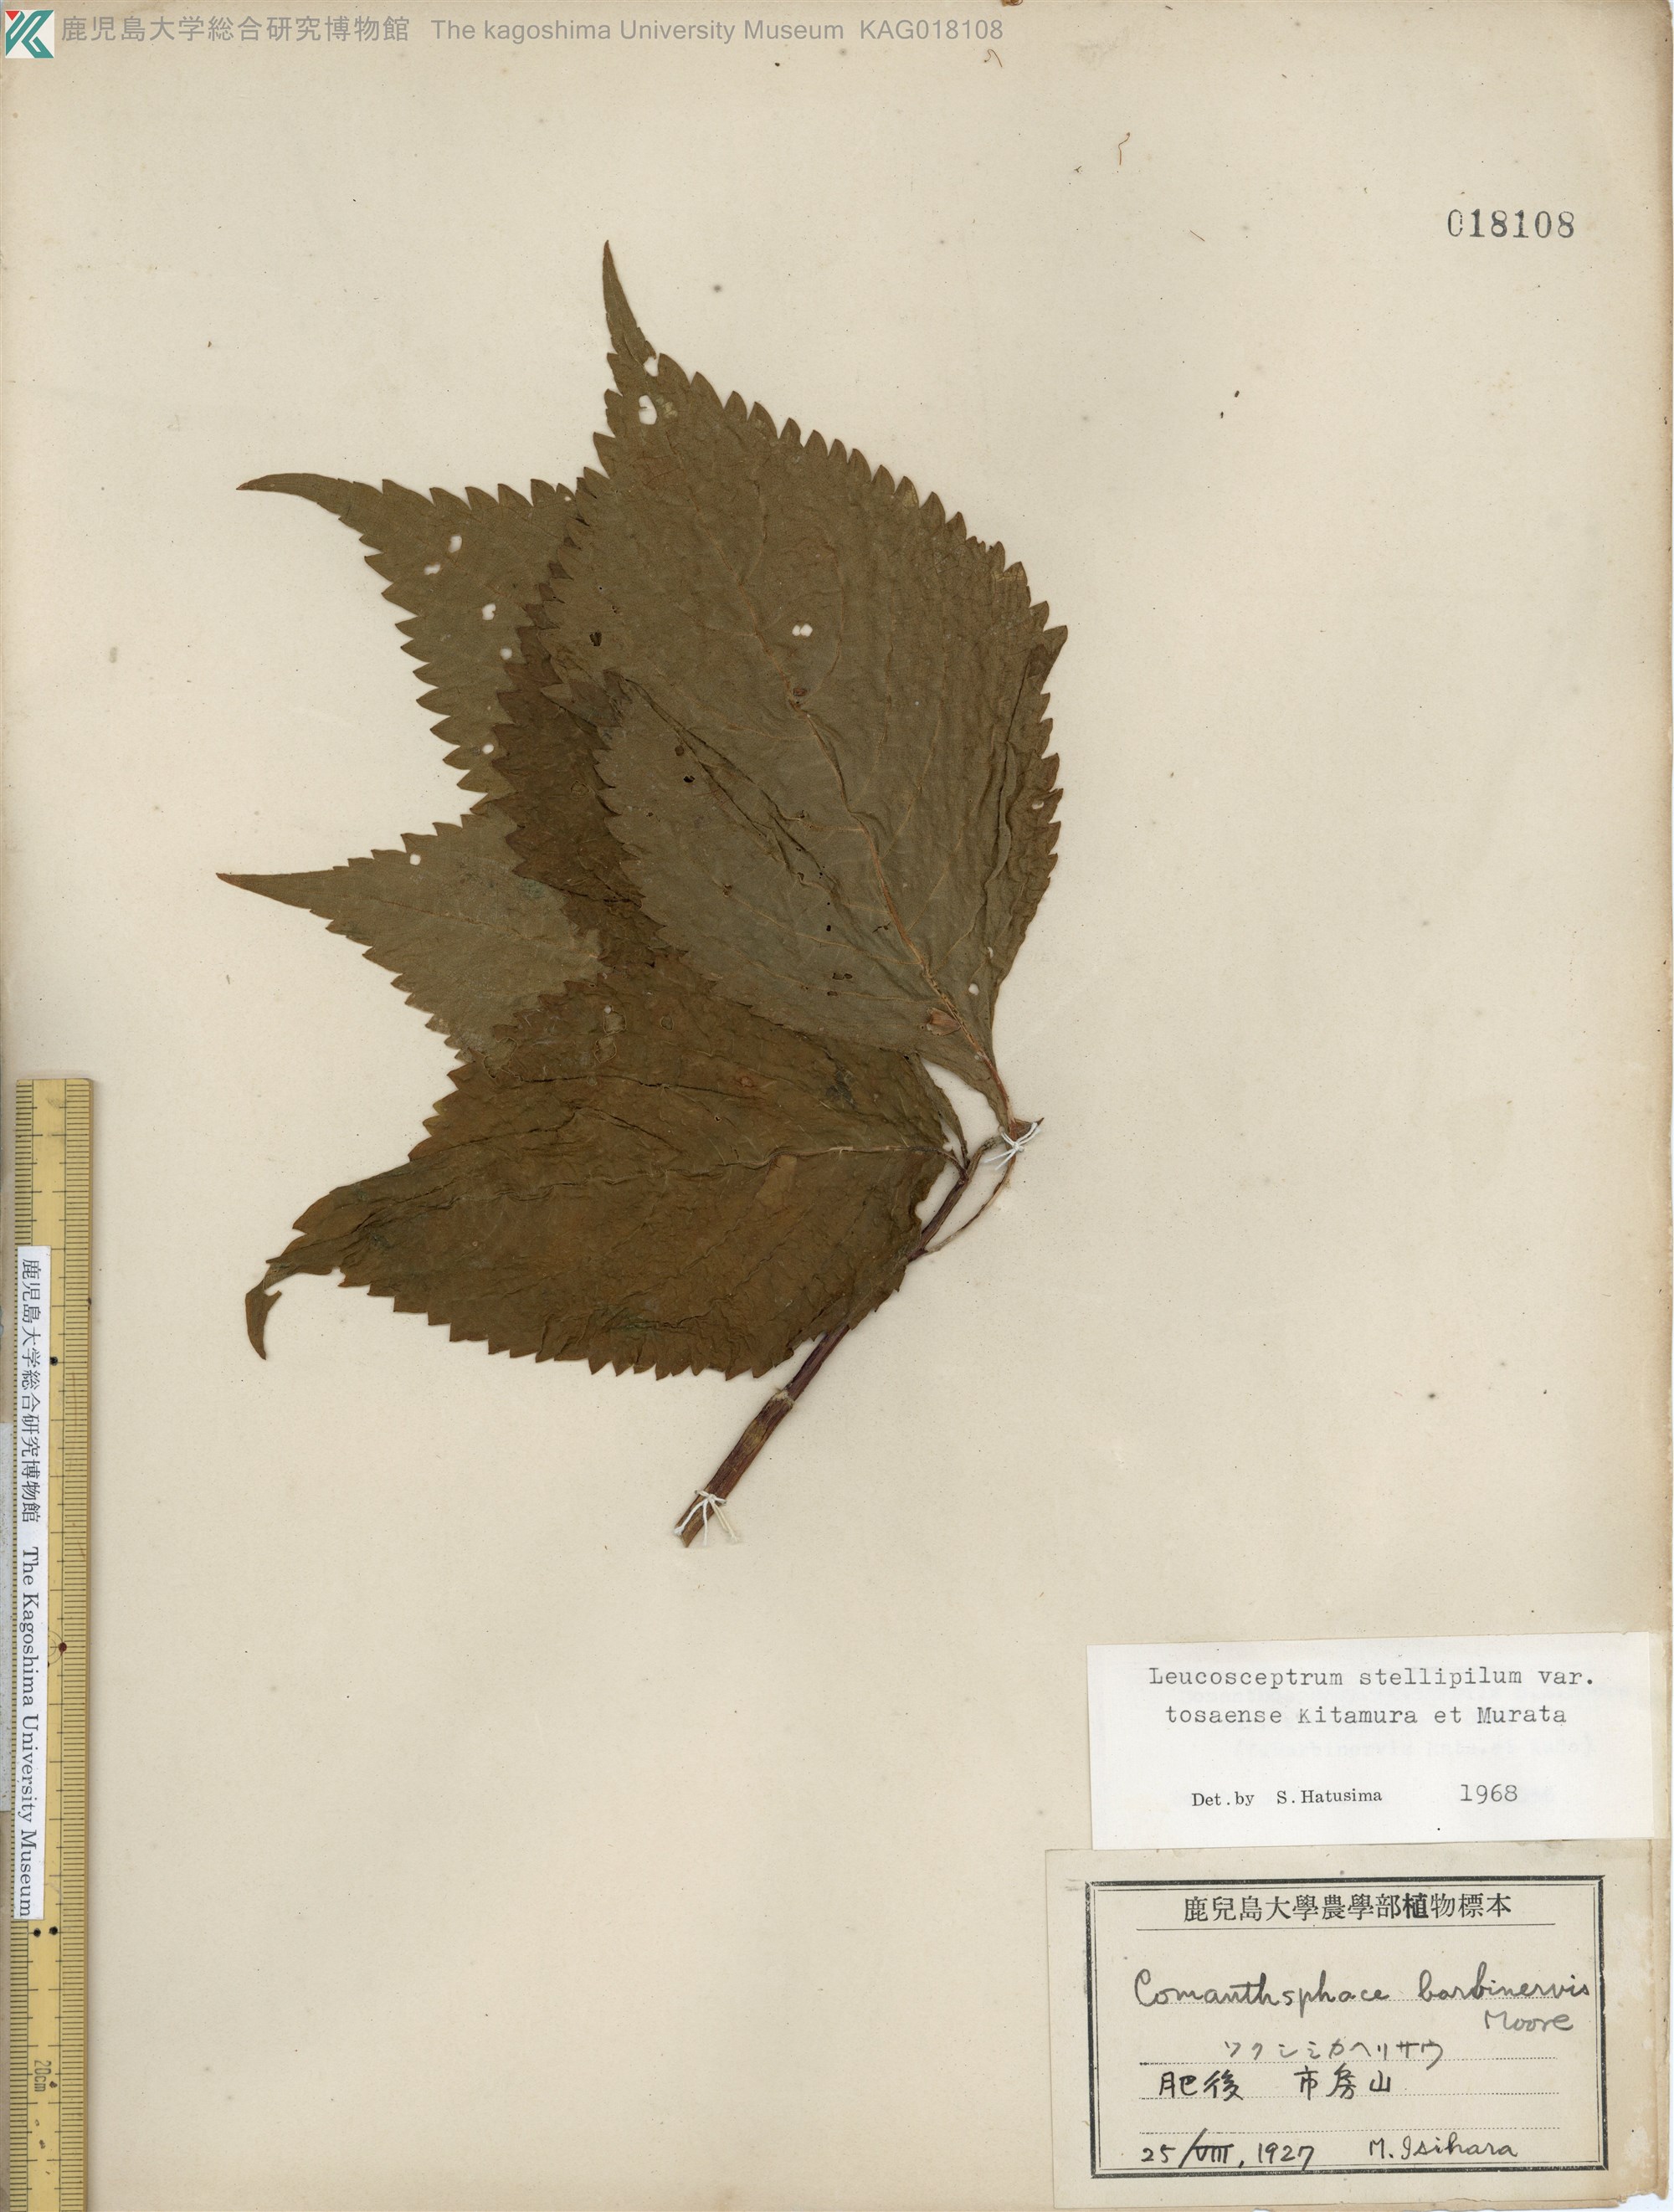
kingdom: Plantae
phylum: Tracheophyta
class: Magnoliopsida
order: Lamiales
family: Lamiaceae
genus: Comanthosphace
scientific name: Comanthosphace japonica
